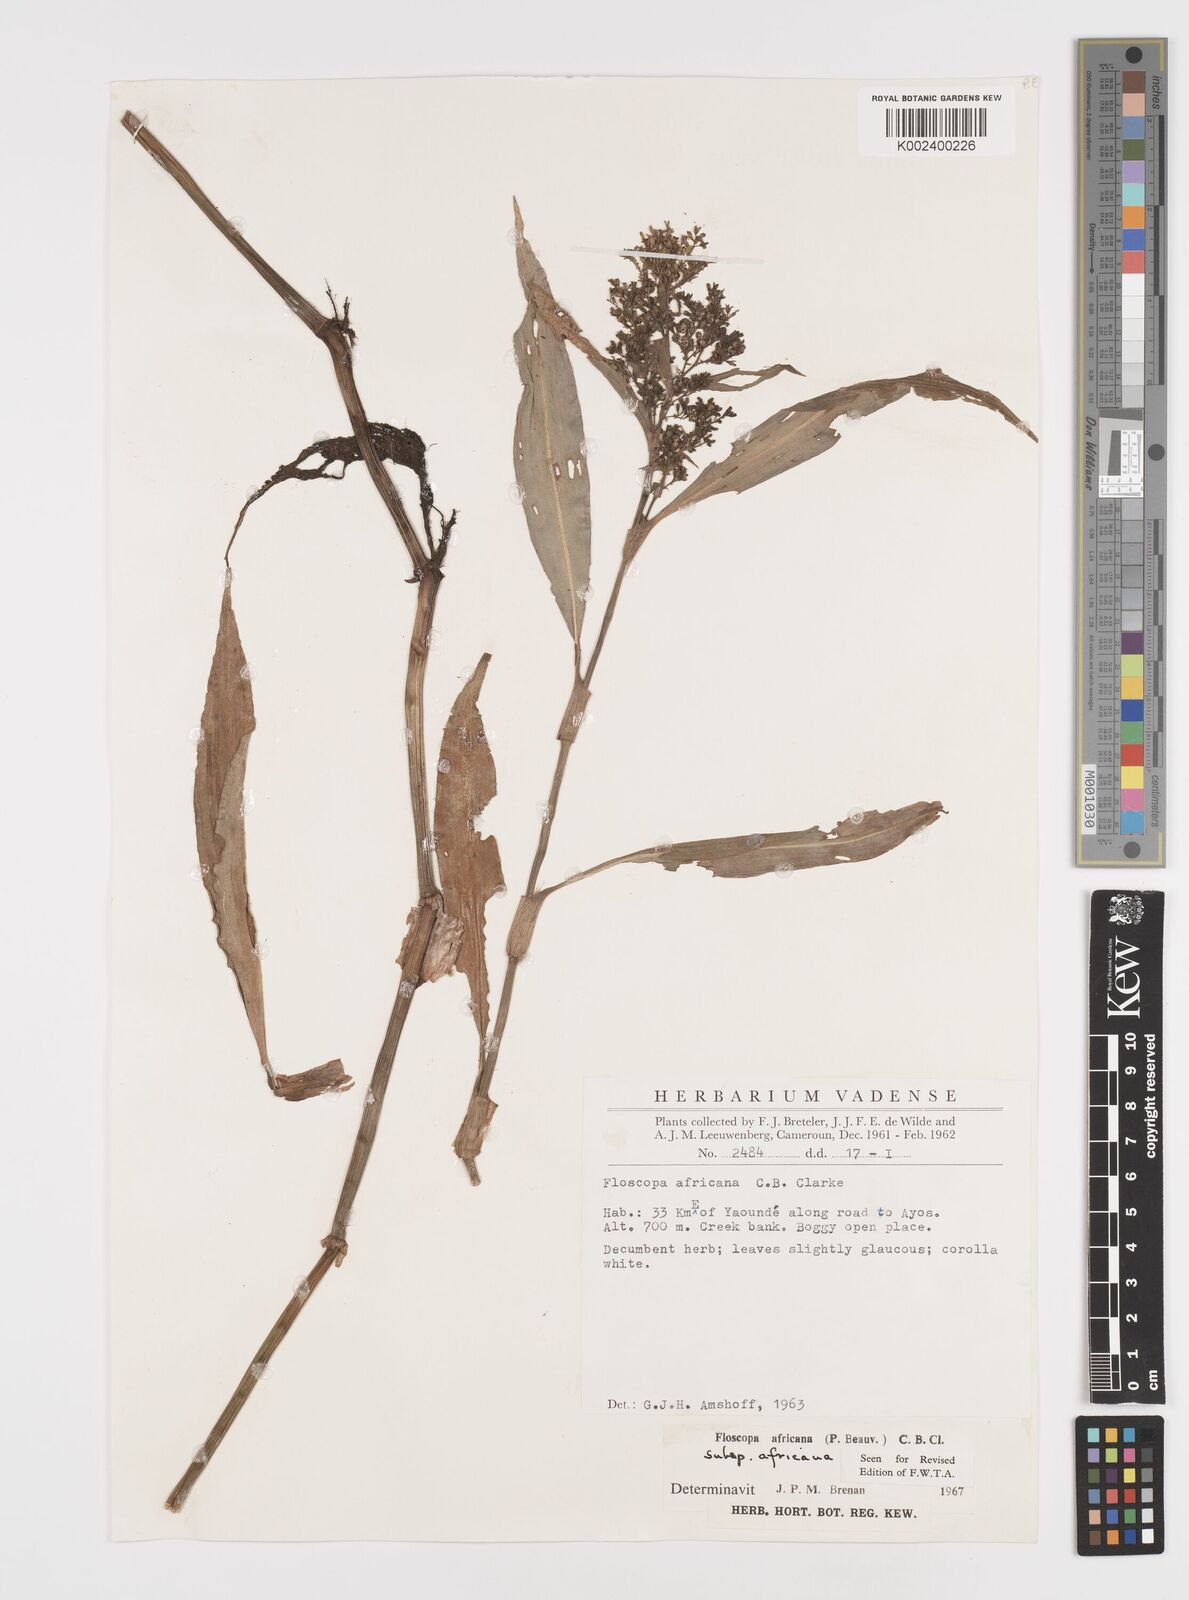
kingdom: Plantae
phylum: Tracheophyta
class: Liliopsida
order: Commelinales
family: Commelinaceae
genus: Floscopa
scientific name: Floscopa africana
